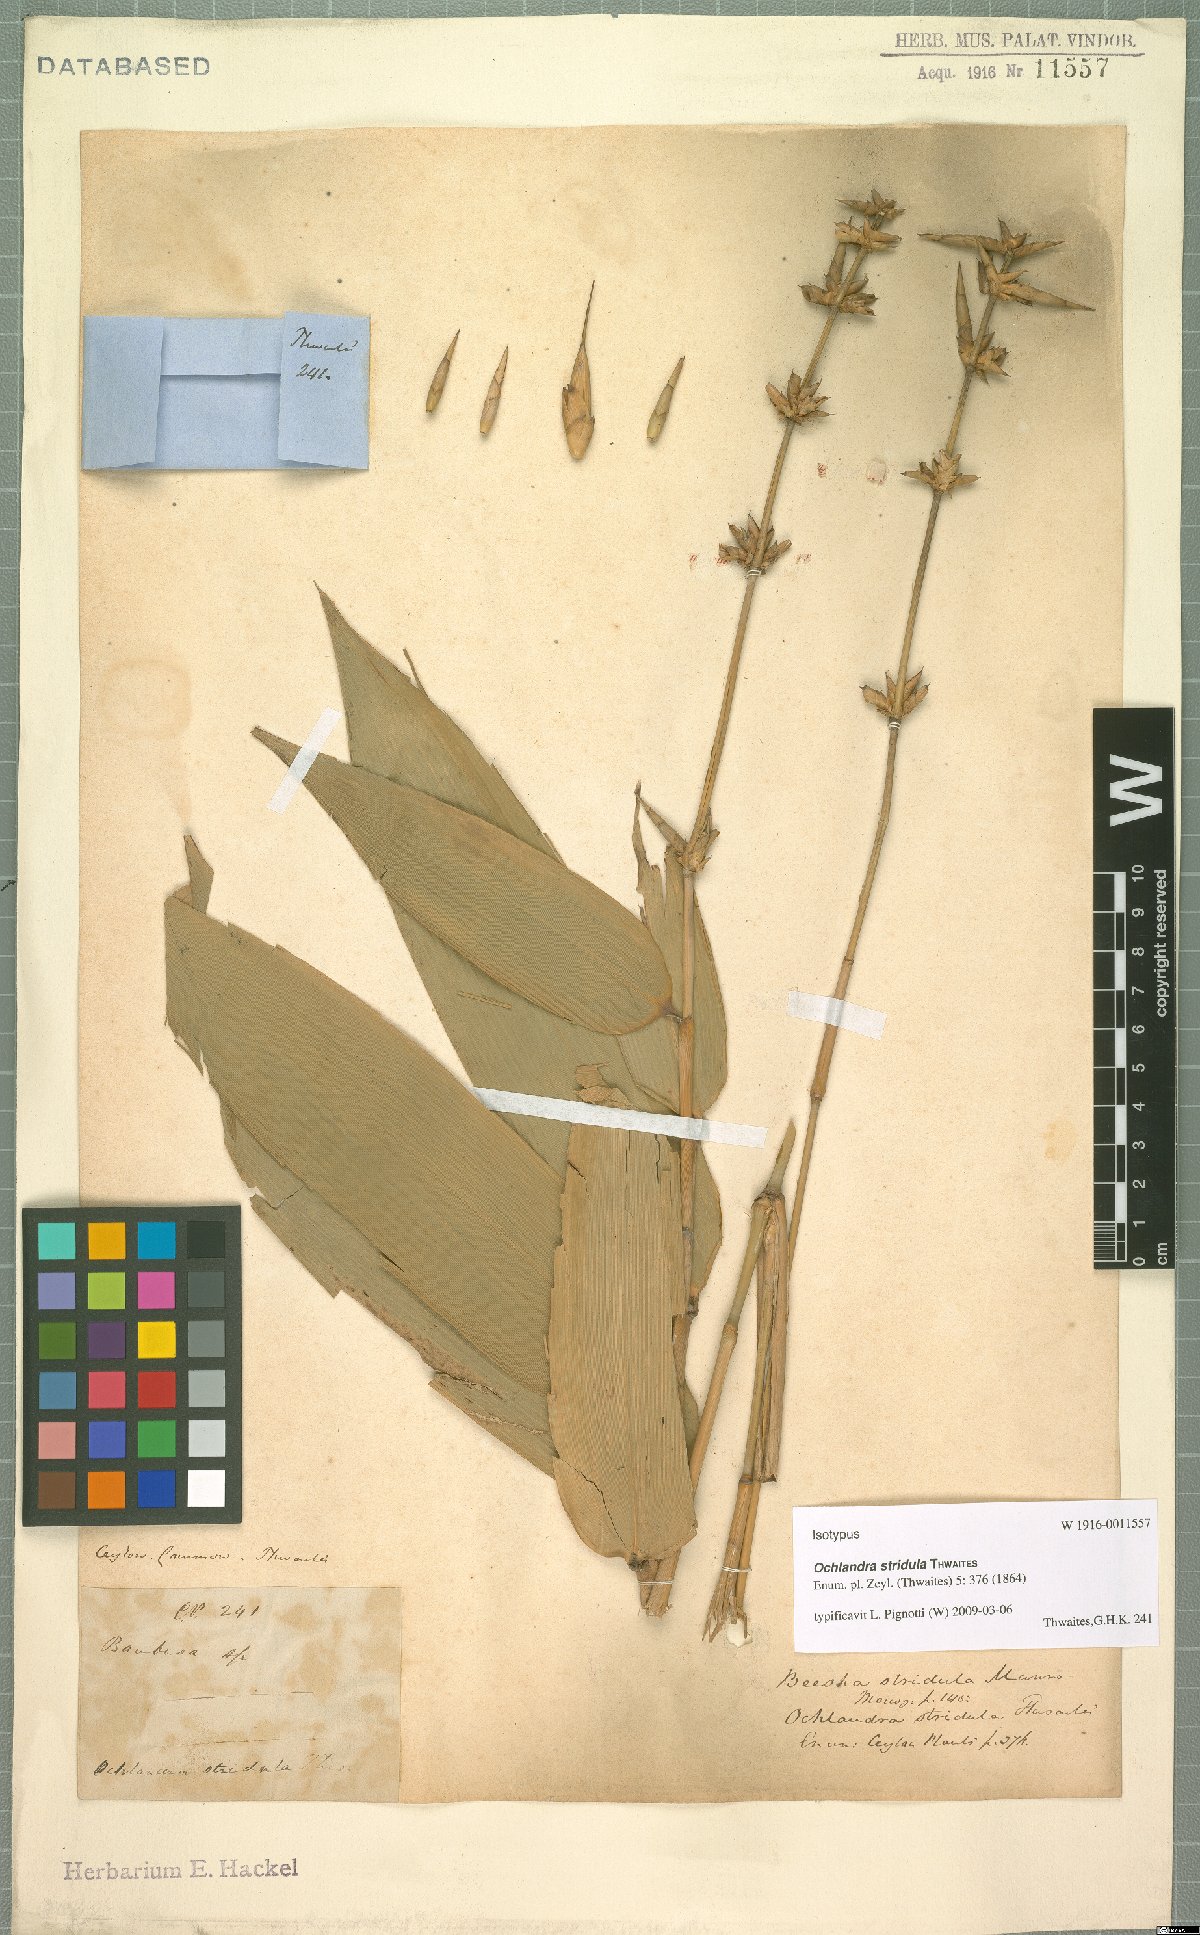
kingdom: Plantae
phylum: Tracheophyta
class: Liliopsida
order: Poales
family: Poaceae
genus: Ochlandra
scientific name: Ochlandra stridula
